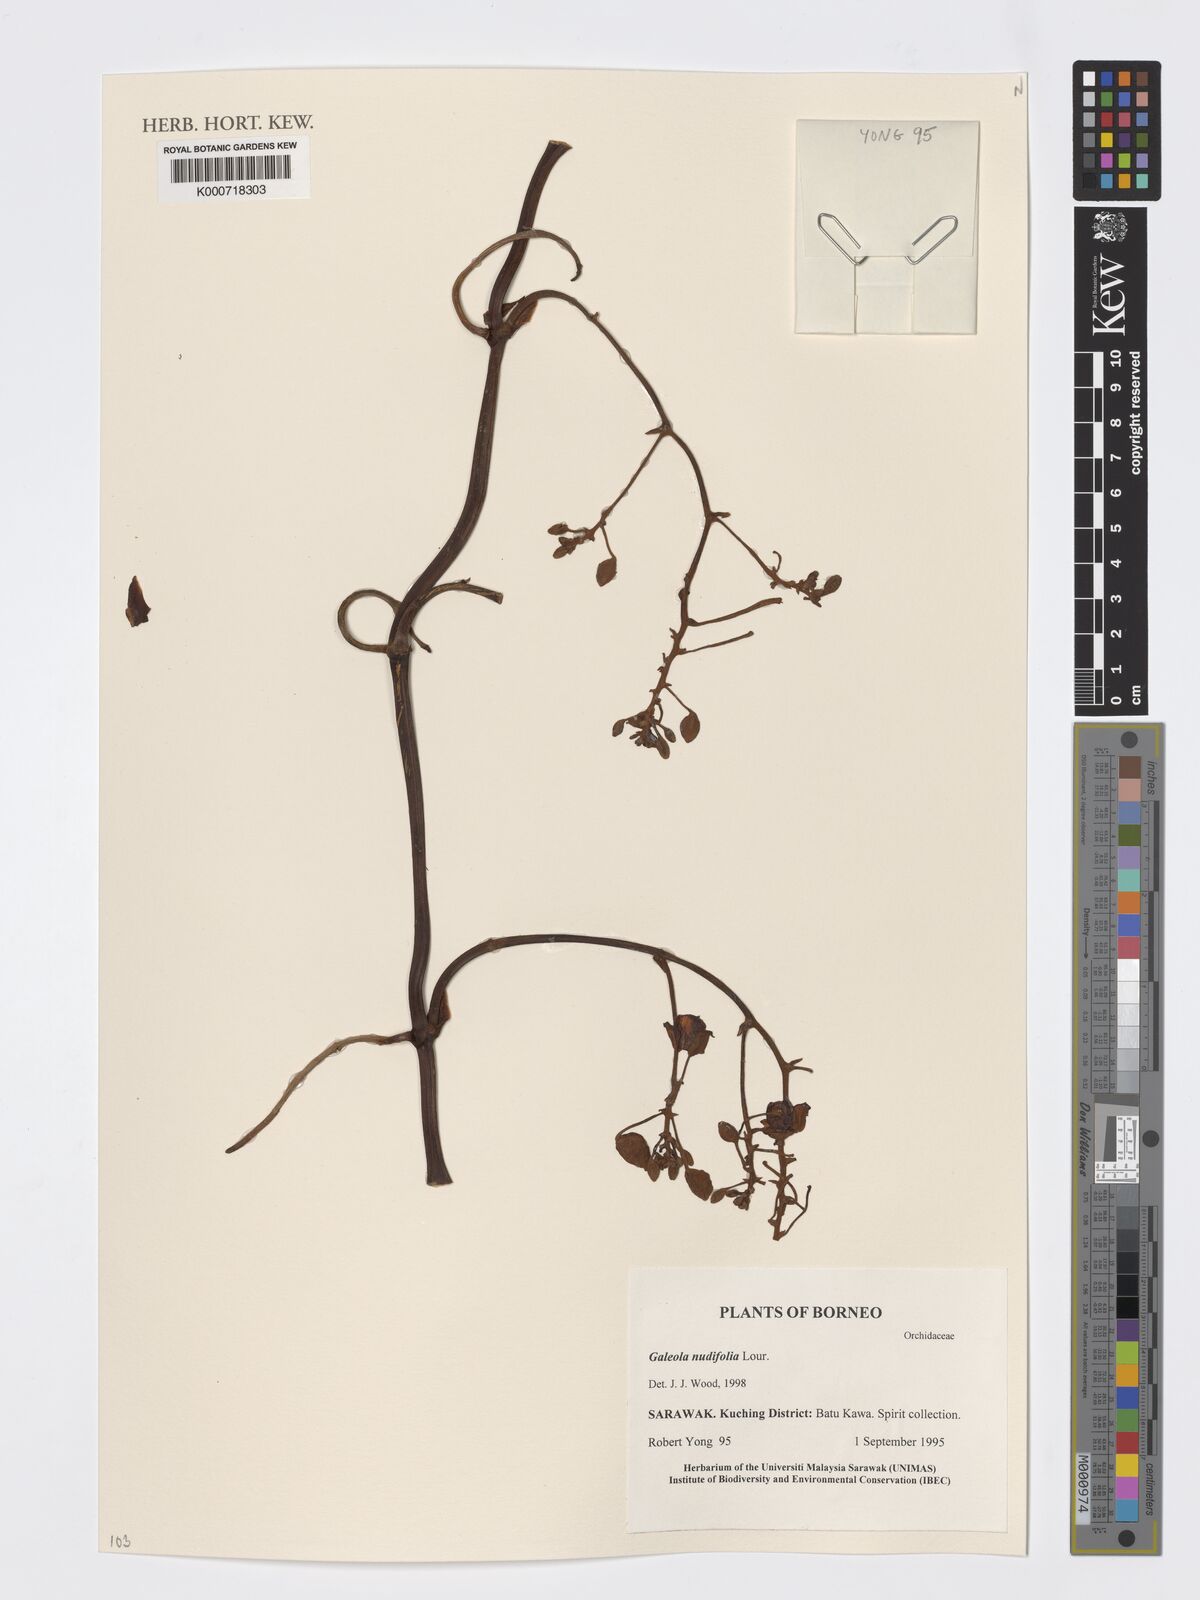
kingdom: Plantae
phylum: Tracheophyta
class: Liliopsida
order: Asparagales
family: Orchidaceae
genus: Galeola
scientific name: Galeola nudifolia
